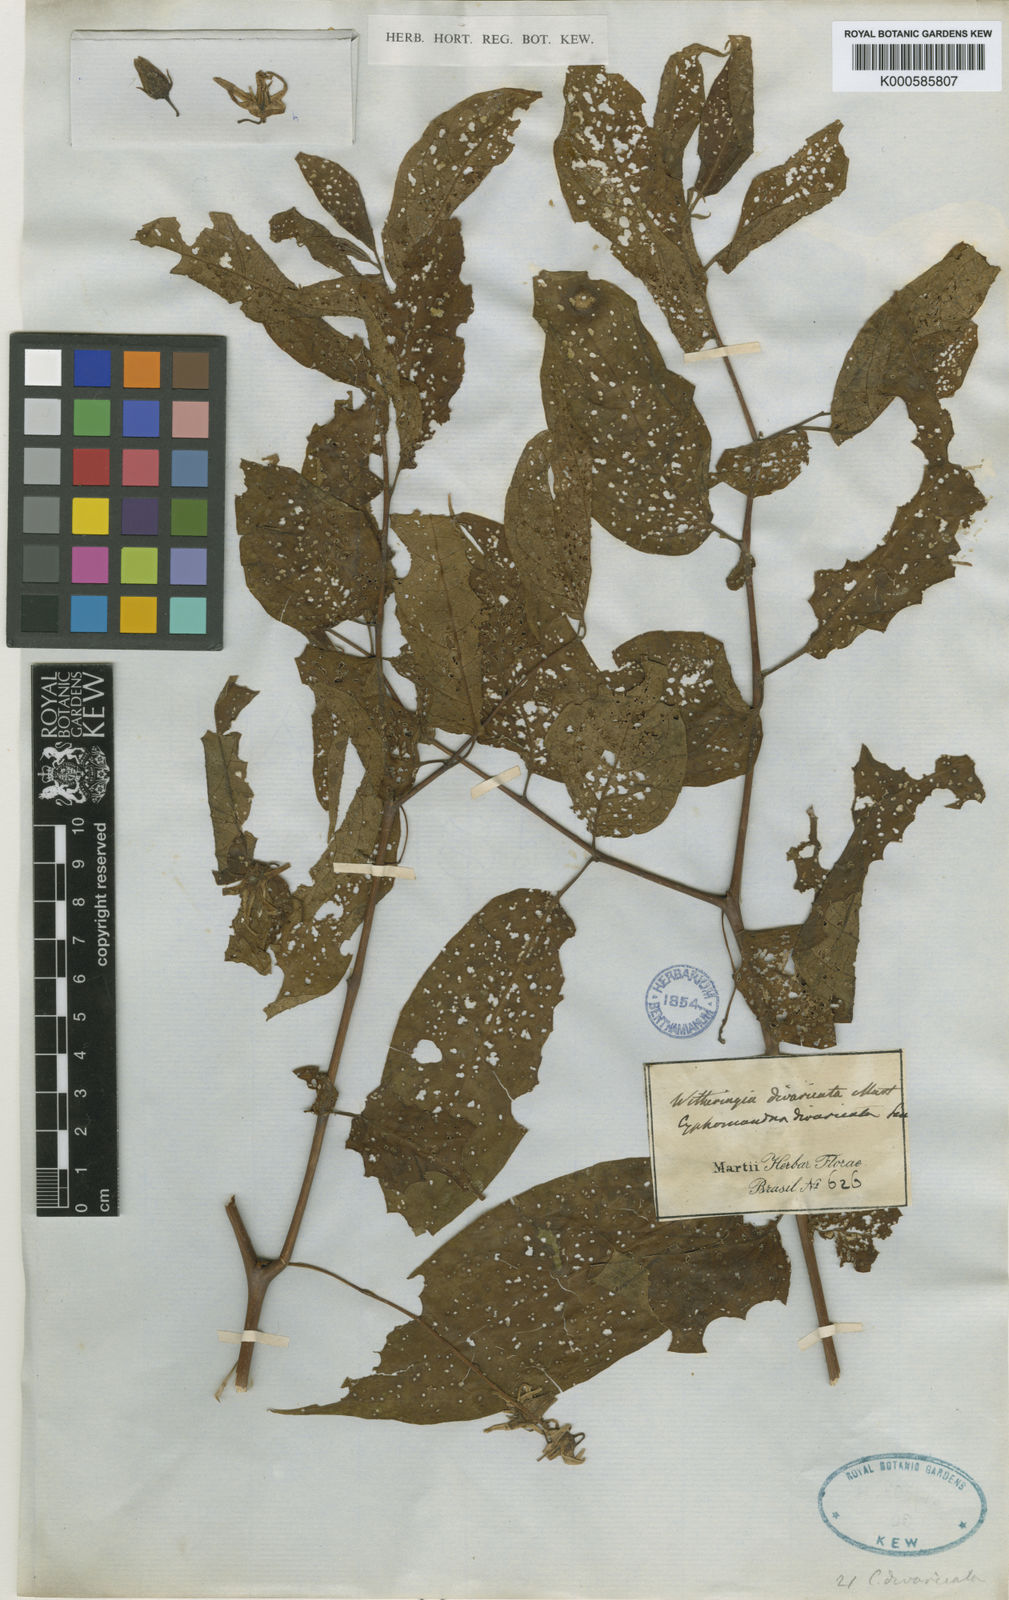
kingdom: Plantae
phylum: Tracheophyta
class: Magnoliopsida
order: Solanales
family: Solanaceae
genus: Solanum
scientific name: Solanum melissarum
